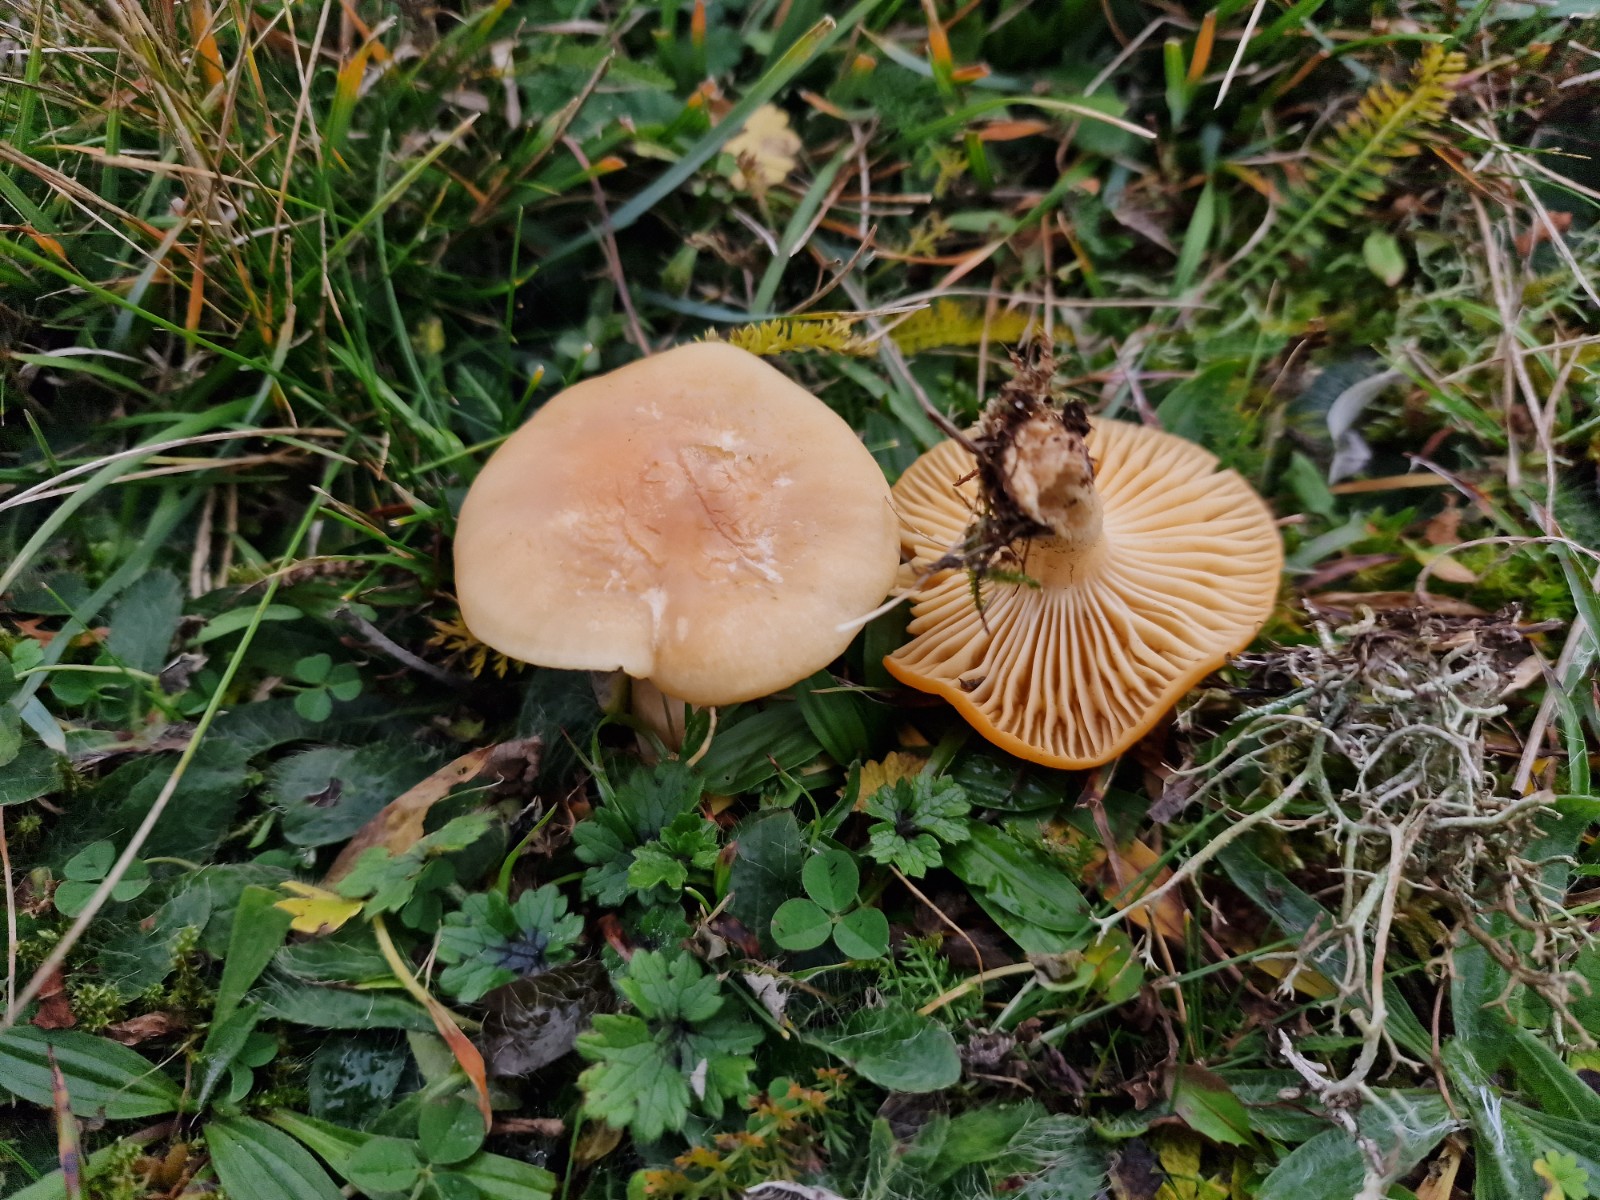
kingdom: Fungi
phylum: Basidiomycota
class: Agaricomycetes
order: Agaricales
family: Hygrophoraceae
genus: Cuphophyllus
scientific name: Cuphophyllus pratensis
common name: eng-vokshat
